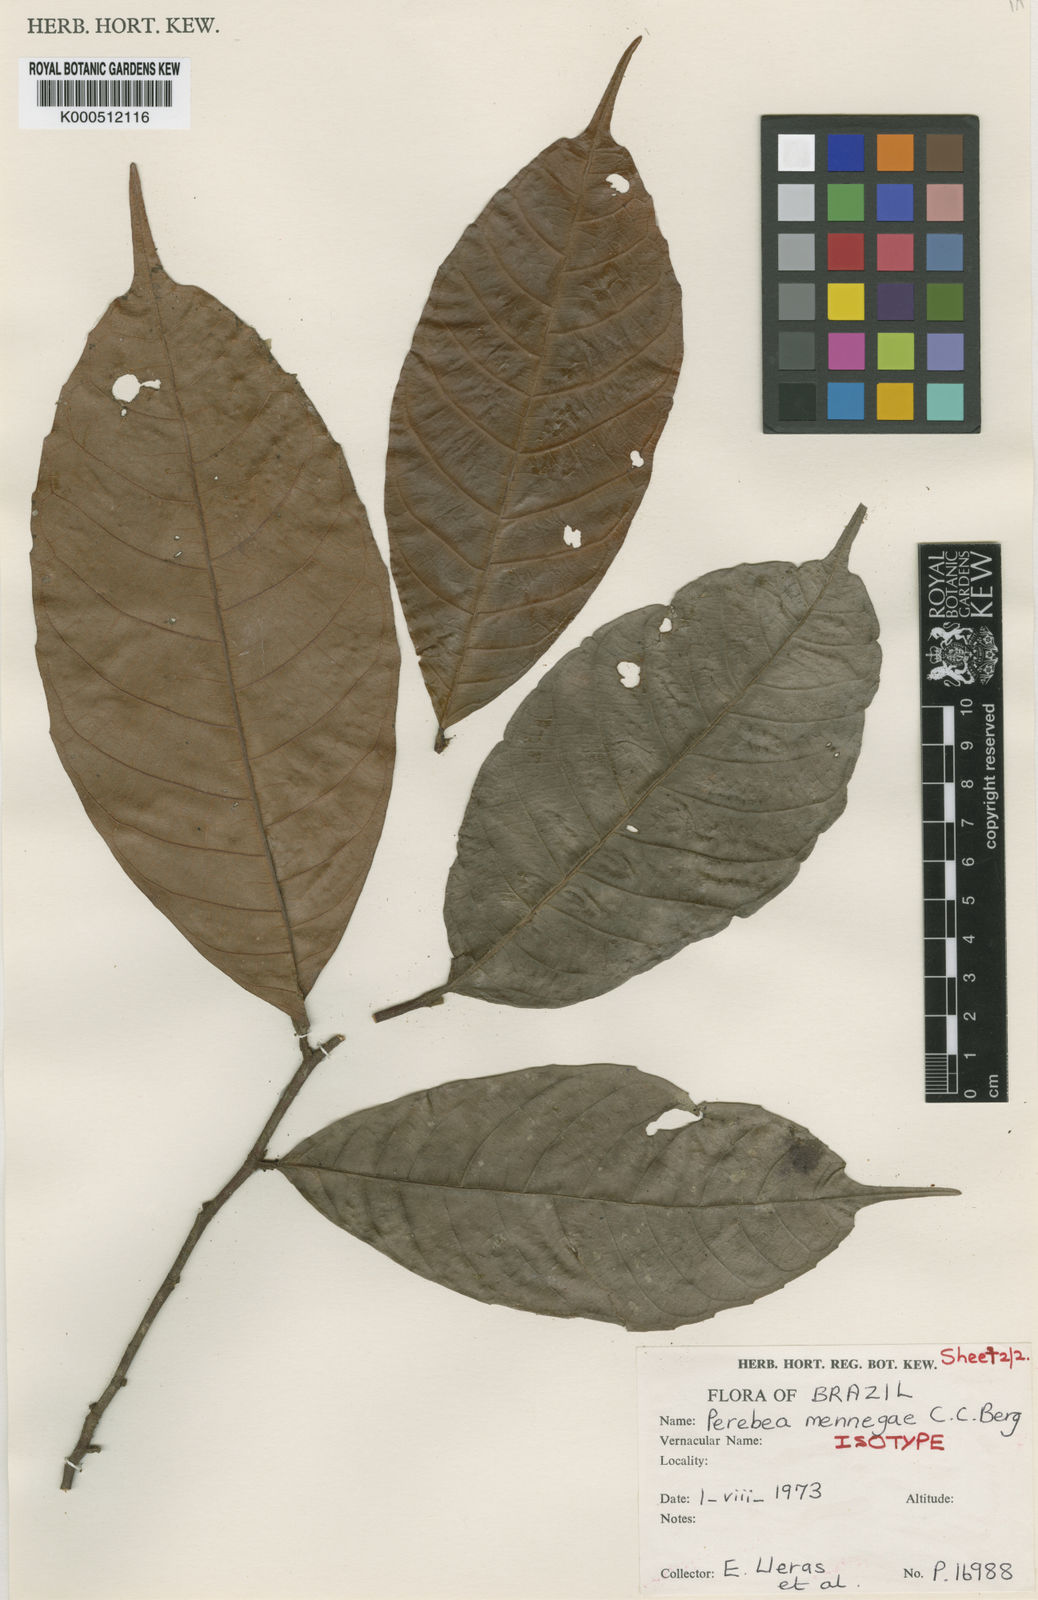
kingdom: Plantae
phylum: Tracheophyta
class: Magnoliopsida
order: Rosales
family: Moraceae
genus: Perebea
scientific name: Perebea mennegae
